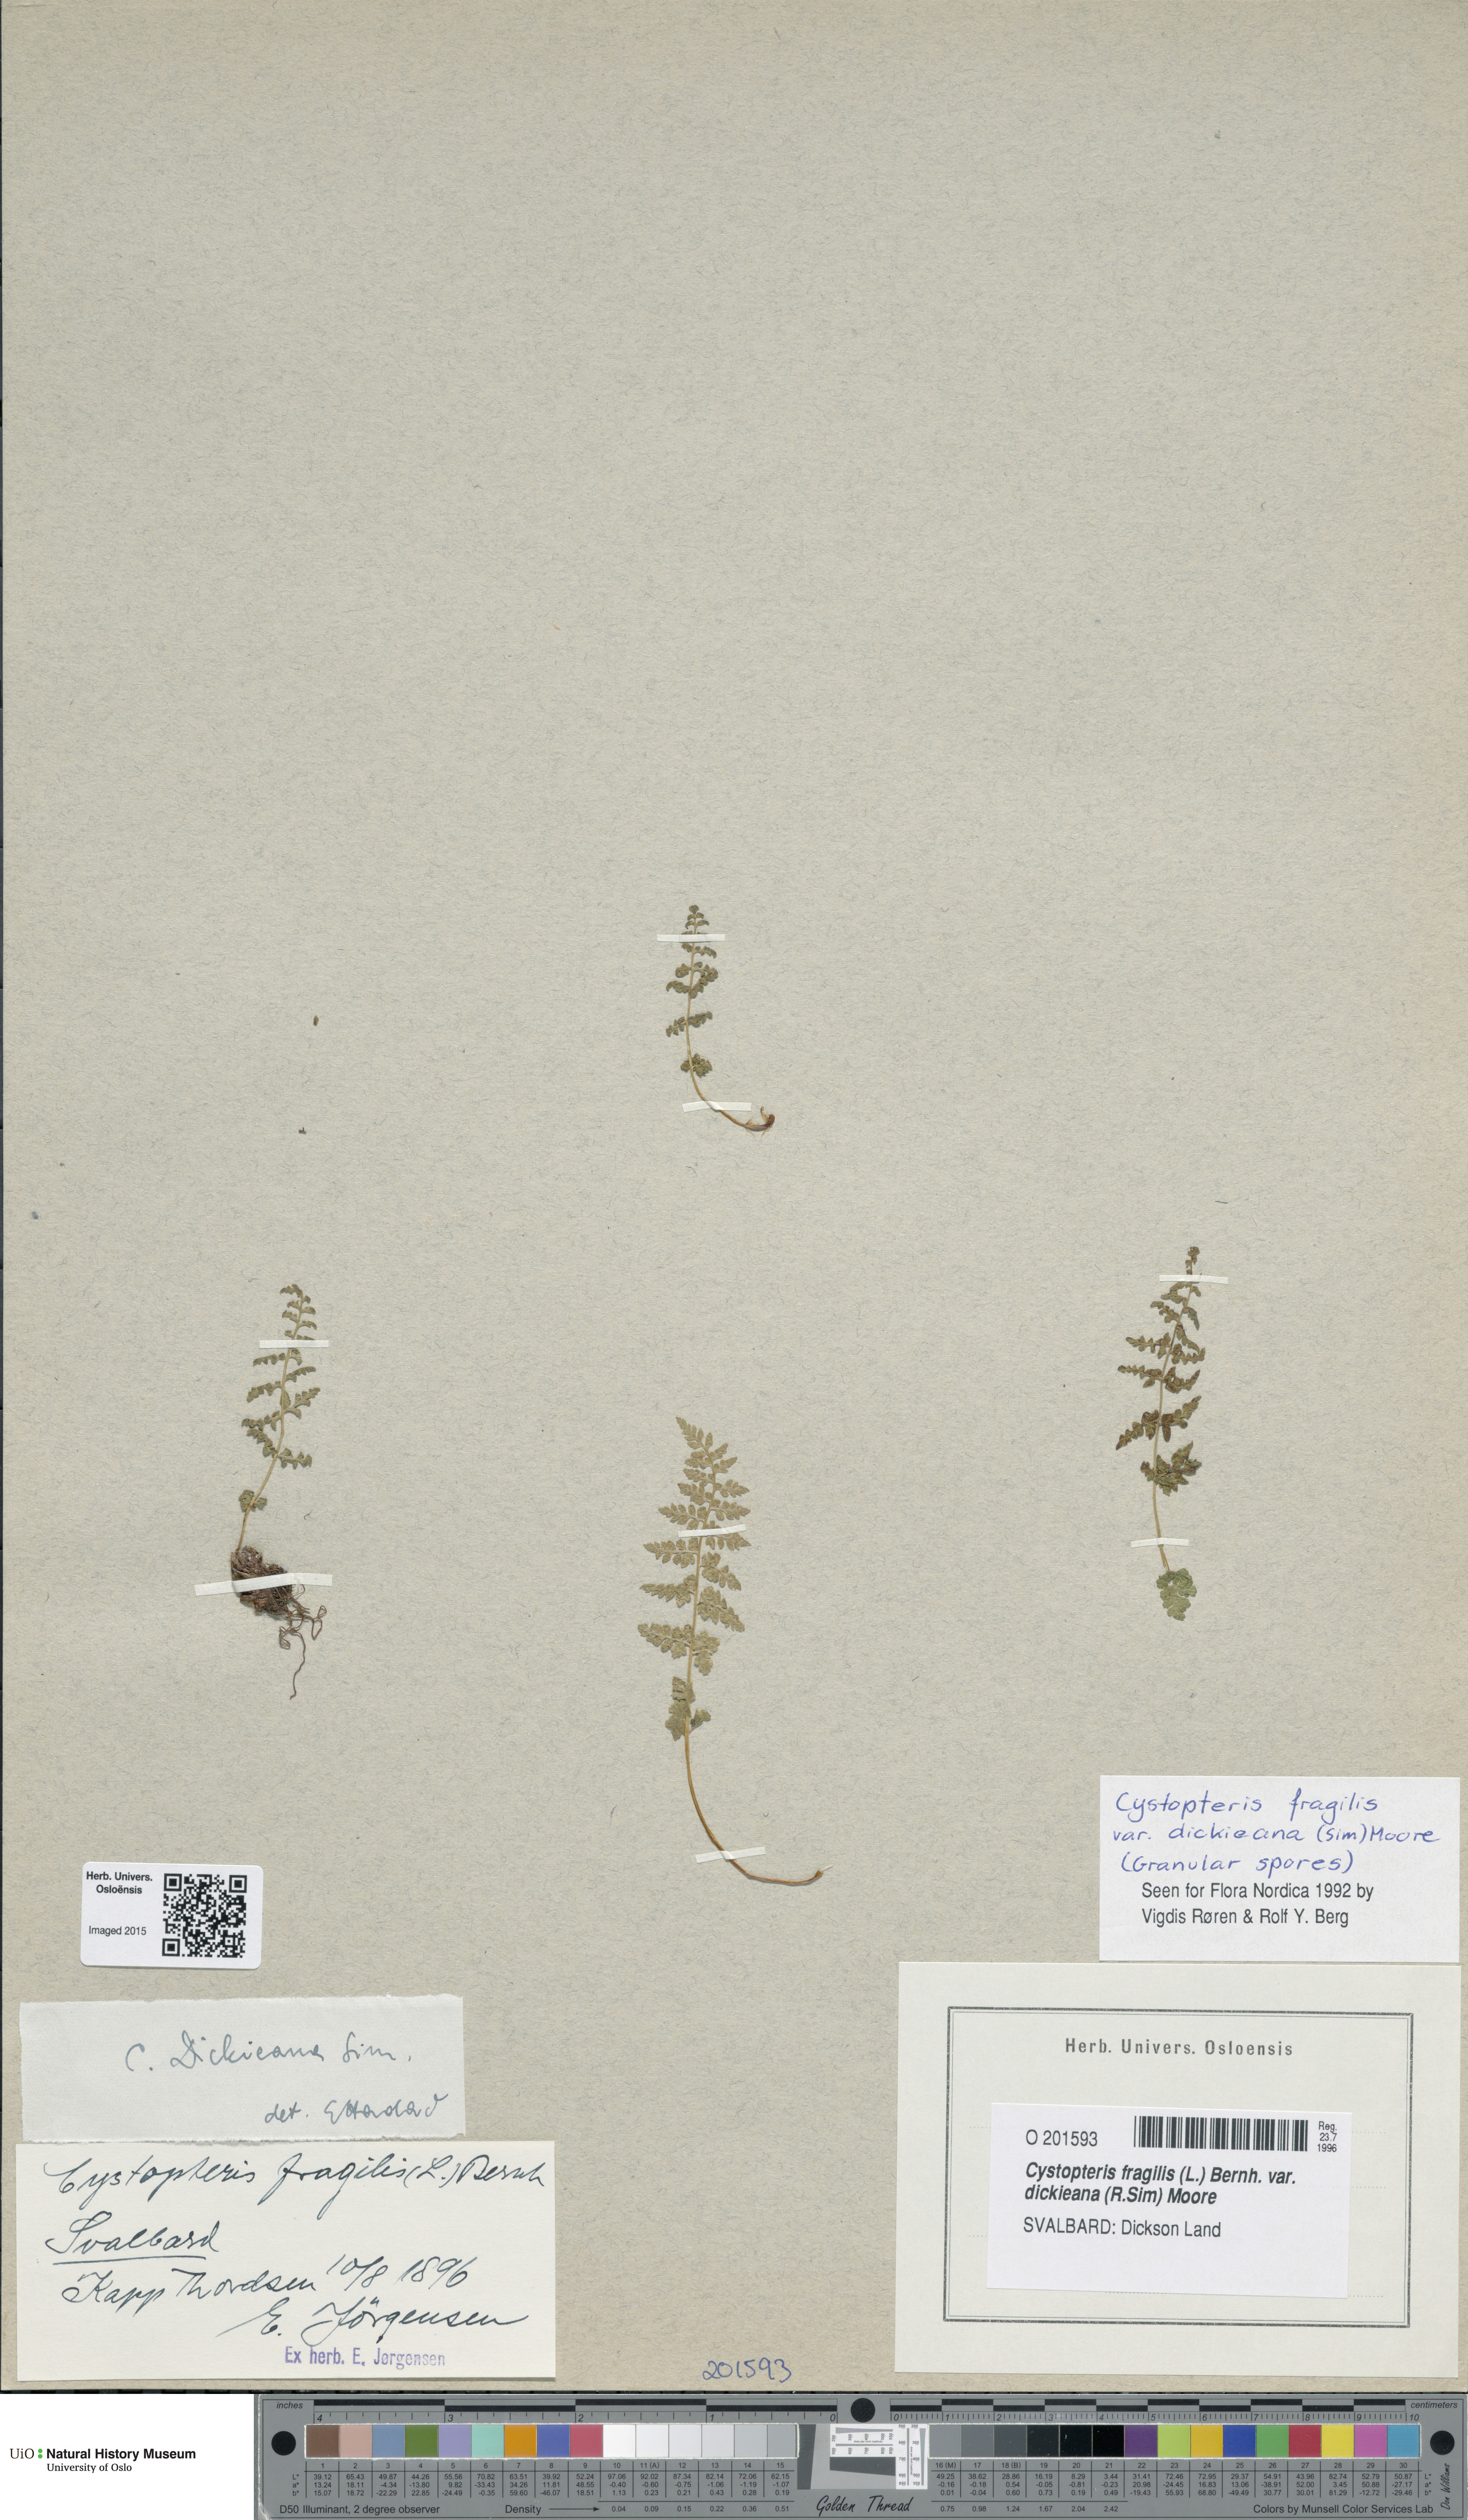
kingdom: Plantae
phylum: Tracheophyta
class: Polypodiopsida
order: Polypodiales
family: Cystopteridaceae
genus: Cystopteris
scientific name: Cystopteris dickieana
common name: Dickie's bladder-fern
